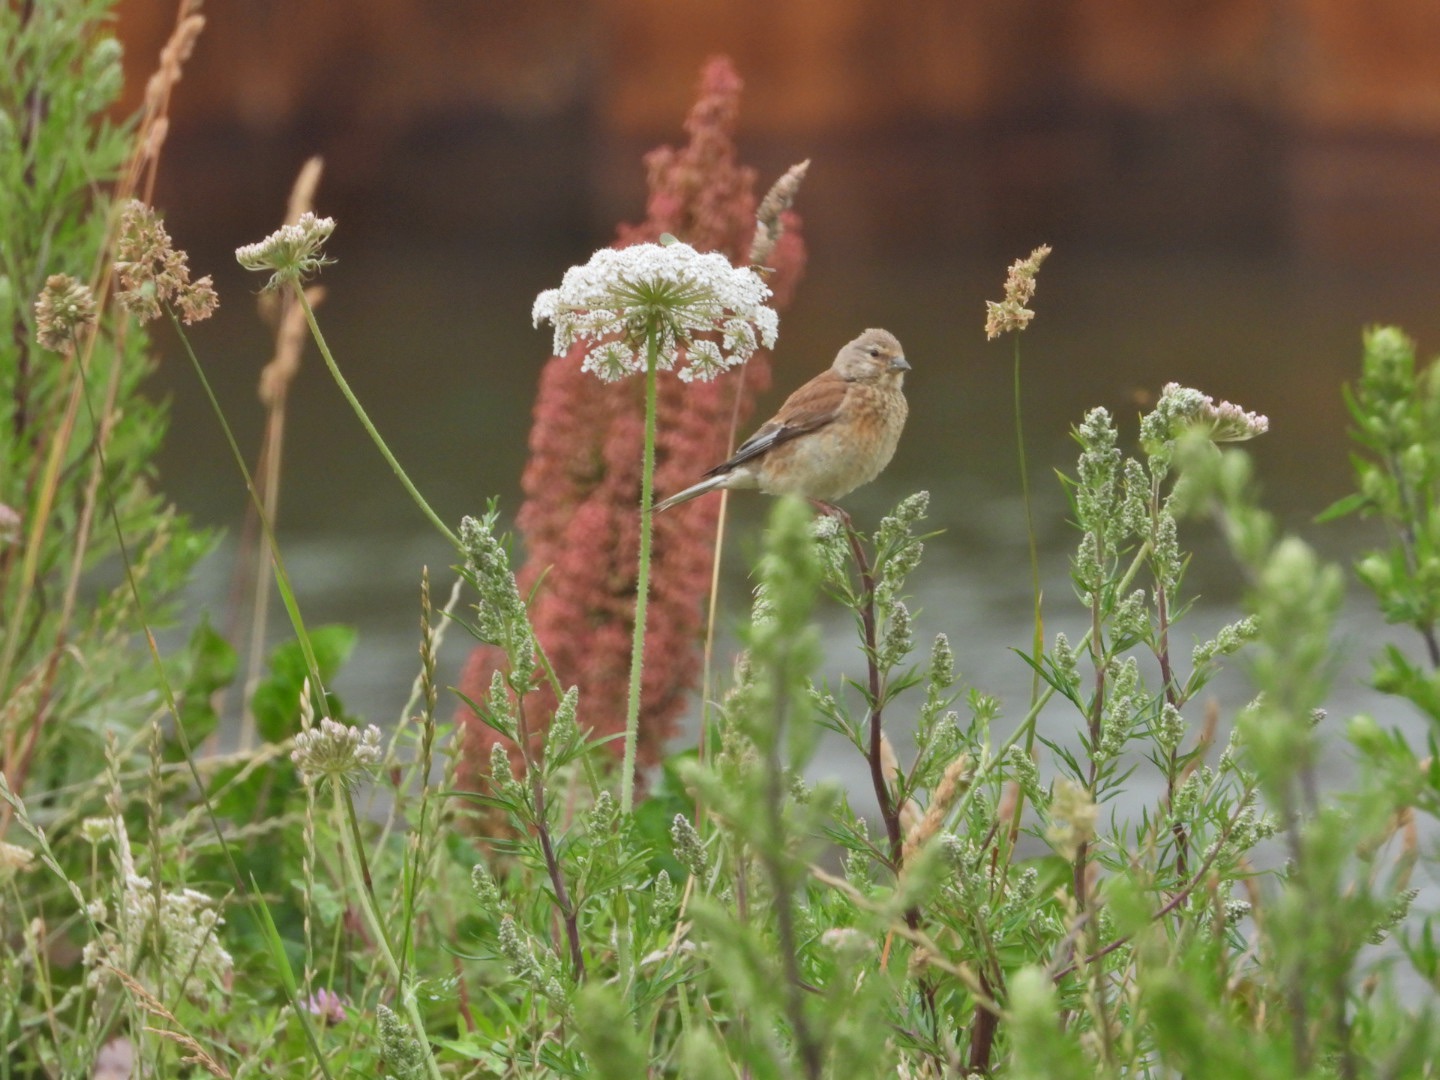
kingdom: Animalia
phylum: Chordata
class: Aves
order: Passeriformes
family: Fringillidae
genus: Linaria
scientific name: Linaria cannabina
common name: Tornirisk
